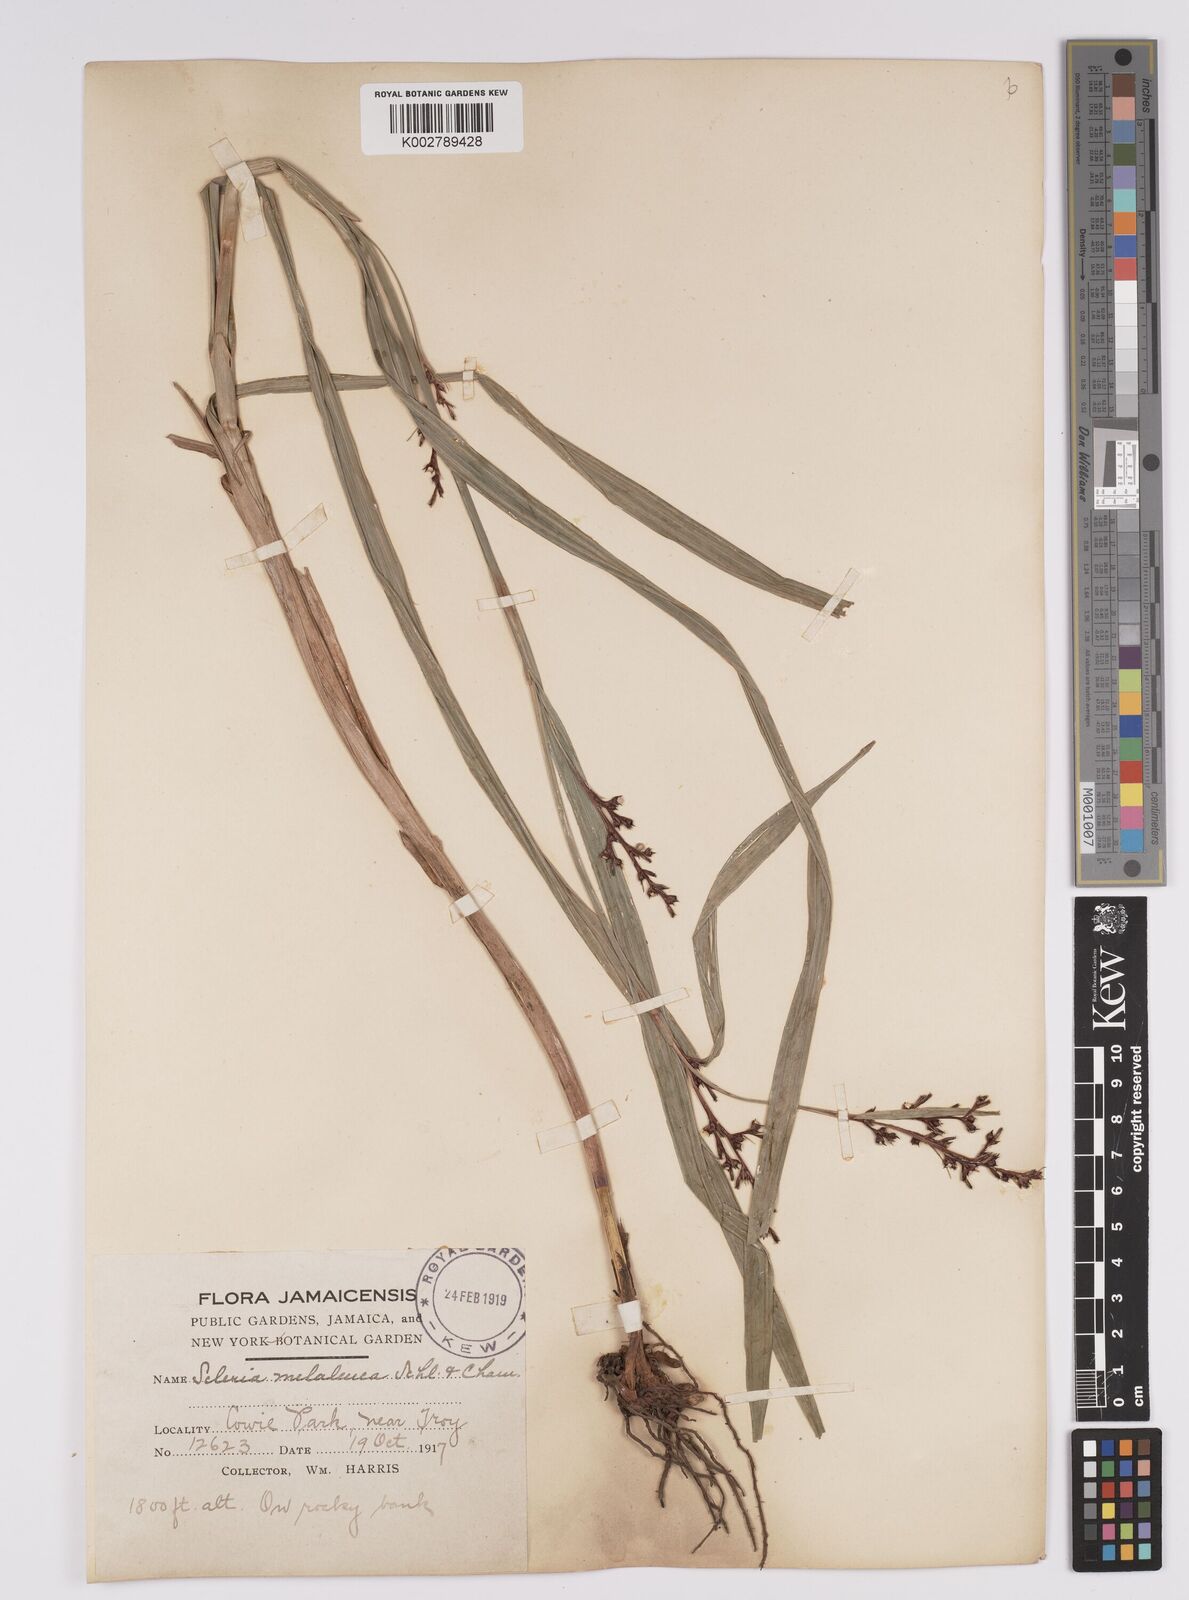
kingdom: Plantae
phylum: Tracheophyta
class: Liliopsida
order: Poales
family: Cyperaceae
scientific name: Cyperaceae
